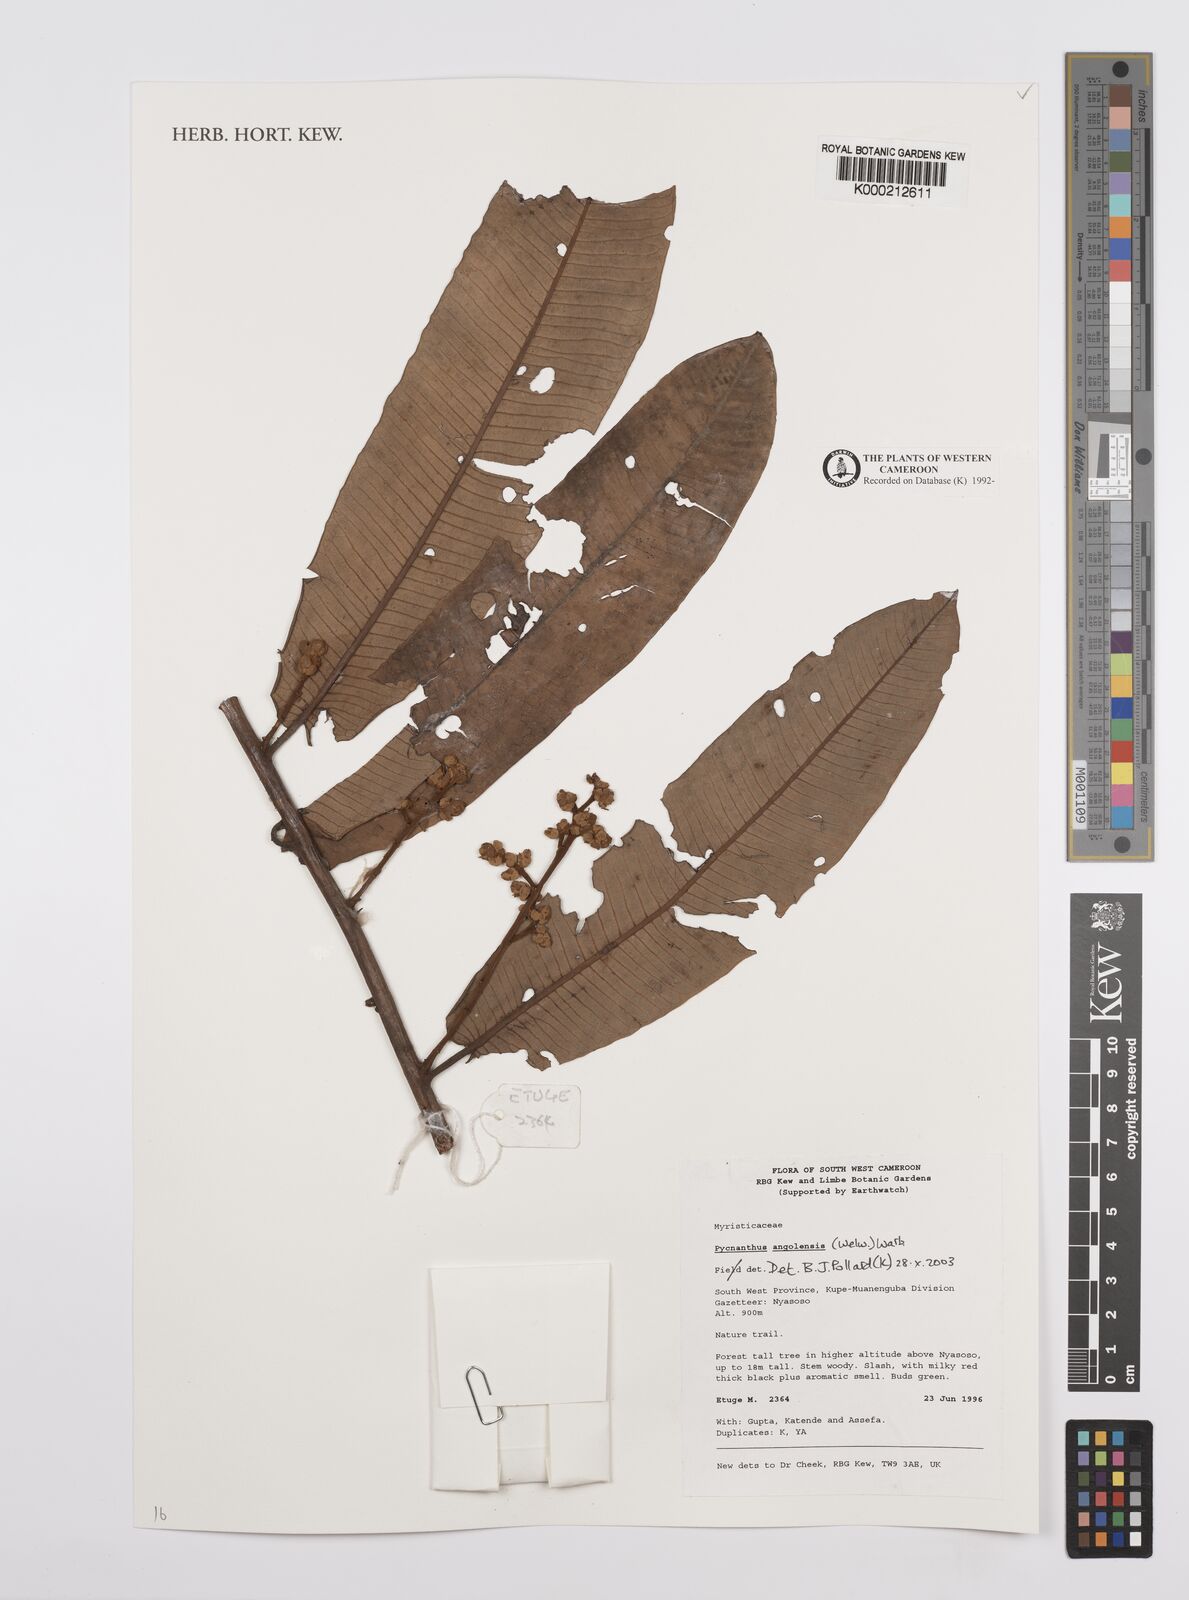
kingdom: Plantae
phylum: Tracheophyta
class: Magnoliopsida
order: Magnoliales
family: Myristicaceae
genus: Pycnanthus
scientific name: Pycnanthus angolensis
